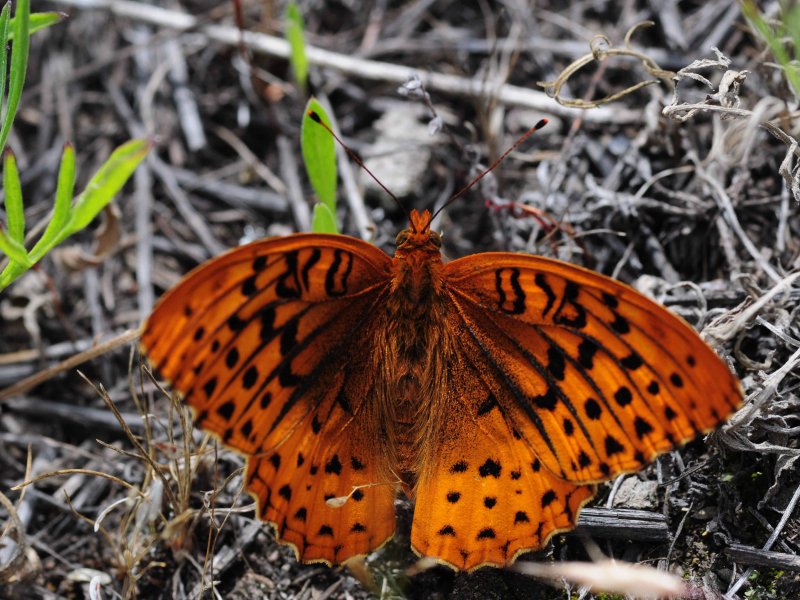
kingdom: Animalia
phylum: Arthropoda
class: Insecta
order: Lepidoptera
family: Nymphalidae
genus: Speyeria
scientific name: Speyeria cybele
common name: Great Spangled Fritillary
